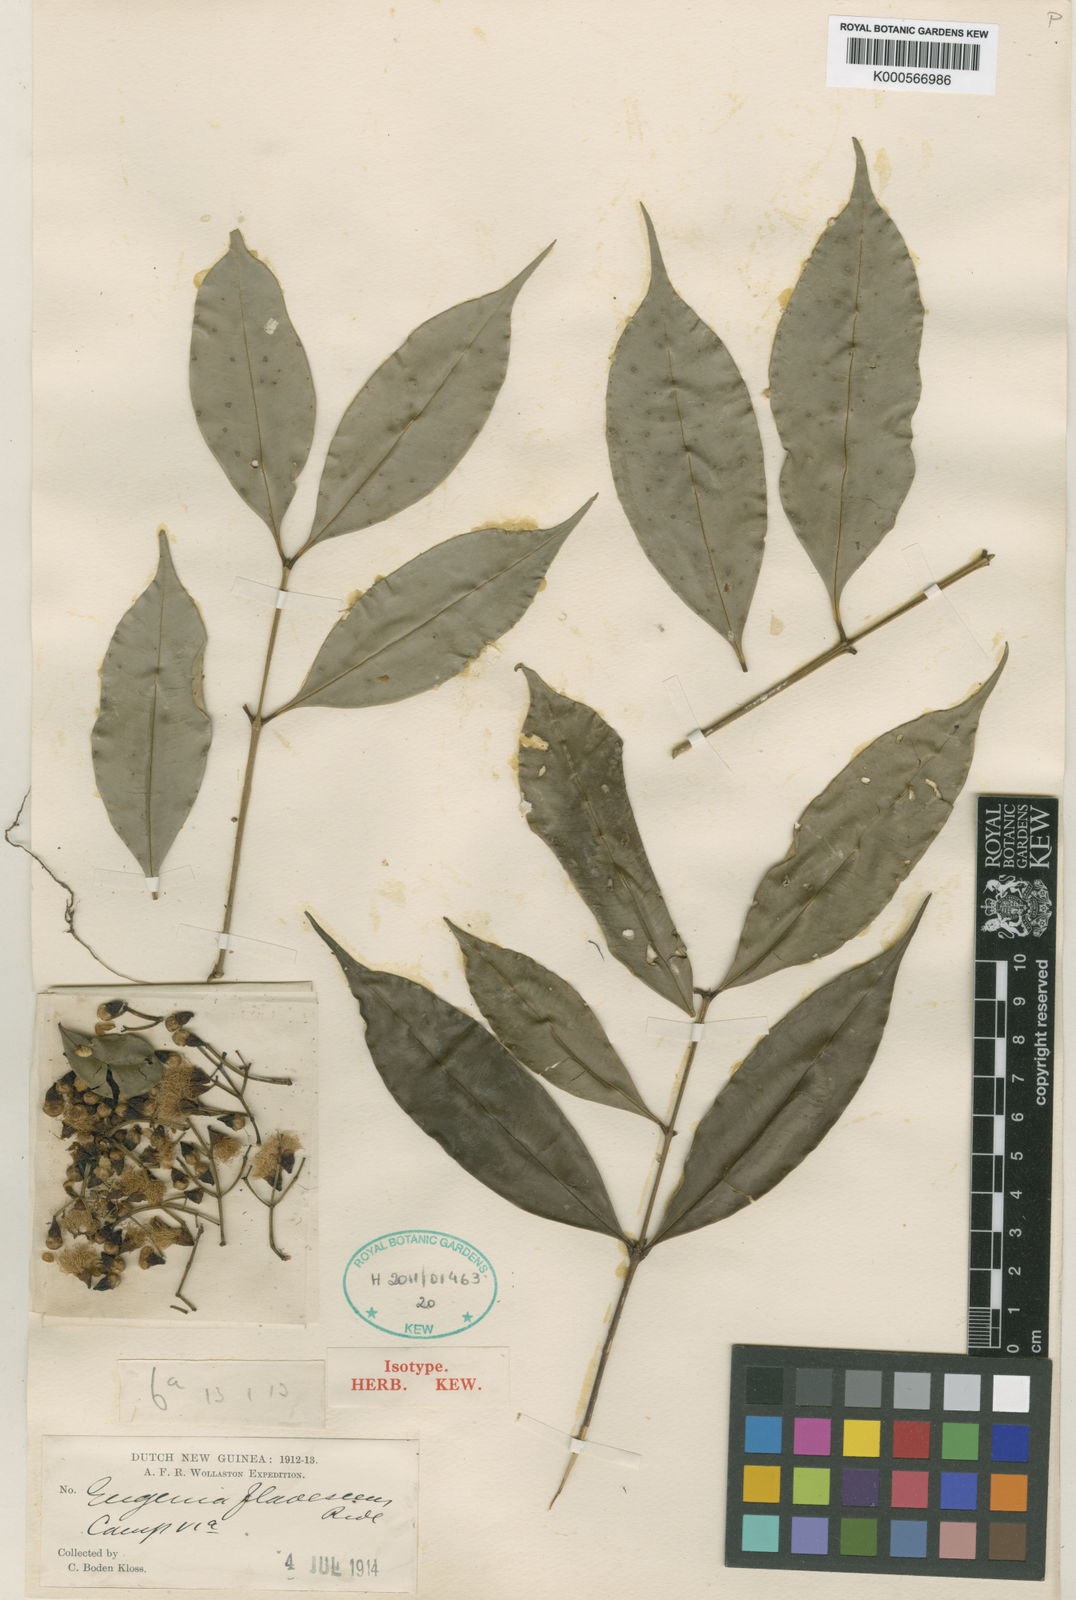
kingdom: Plantae
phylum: Tracheophyta
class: Magnoliopsida
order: Myrtales
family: Myrtaceae
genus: Syzygium
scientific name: Syzygium flavescens
